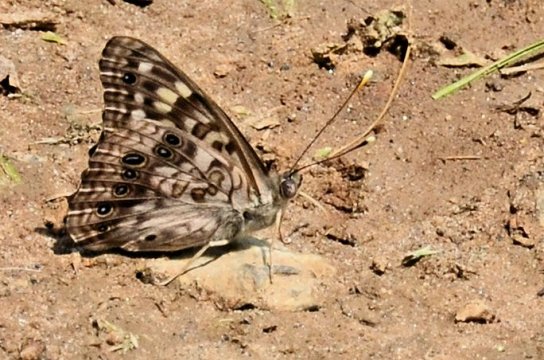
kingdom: Animalia
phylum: Arthropoda
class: Insecta
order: Lepidoptera
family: Nymphalidae
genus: Asterocampa
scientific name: Asterocampa celtis
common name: Hackberry Emperor
